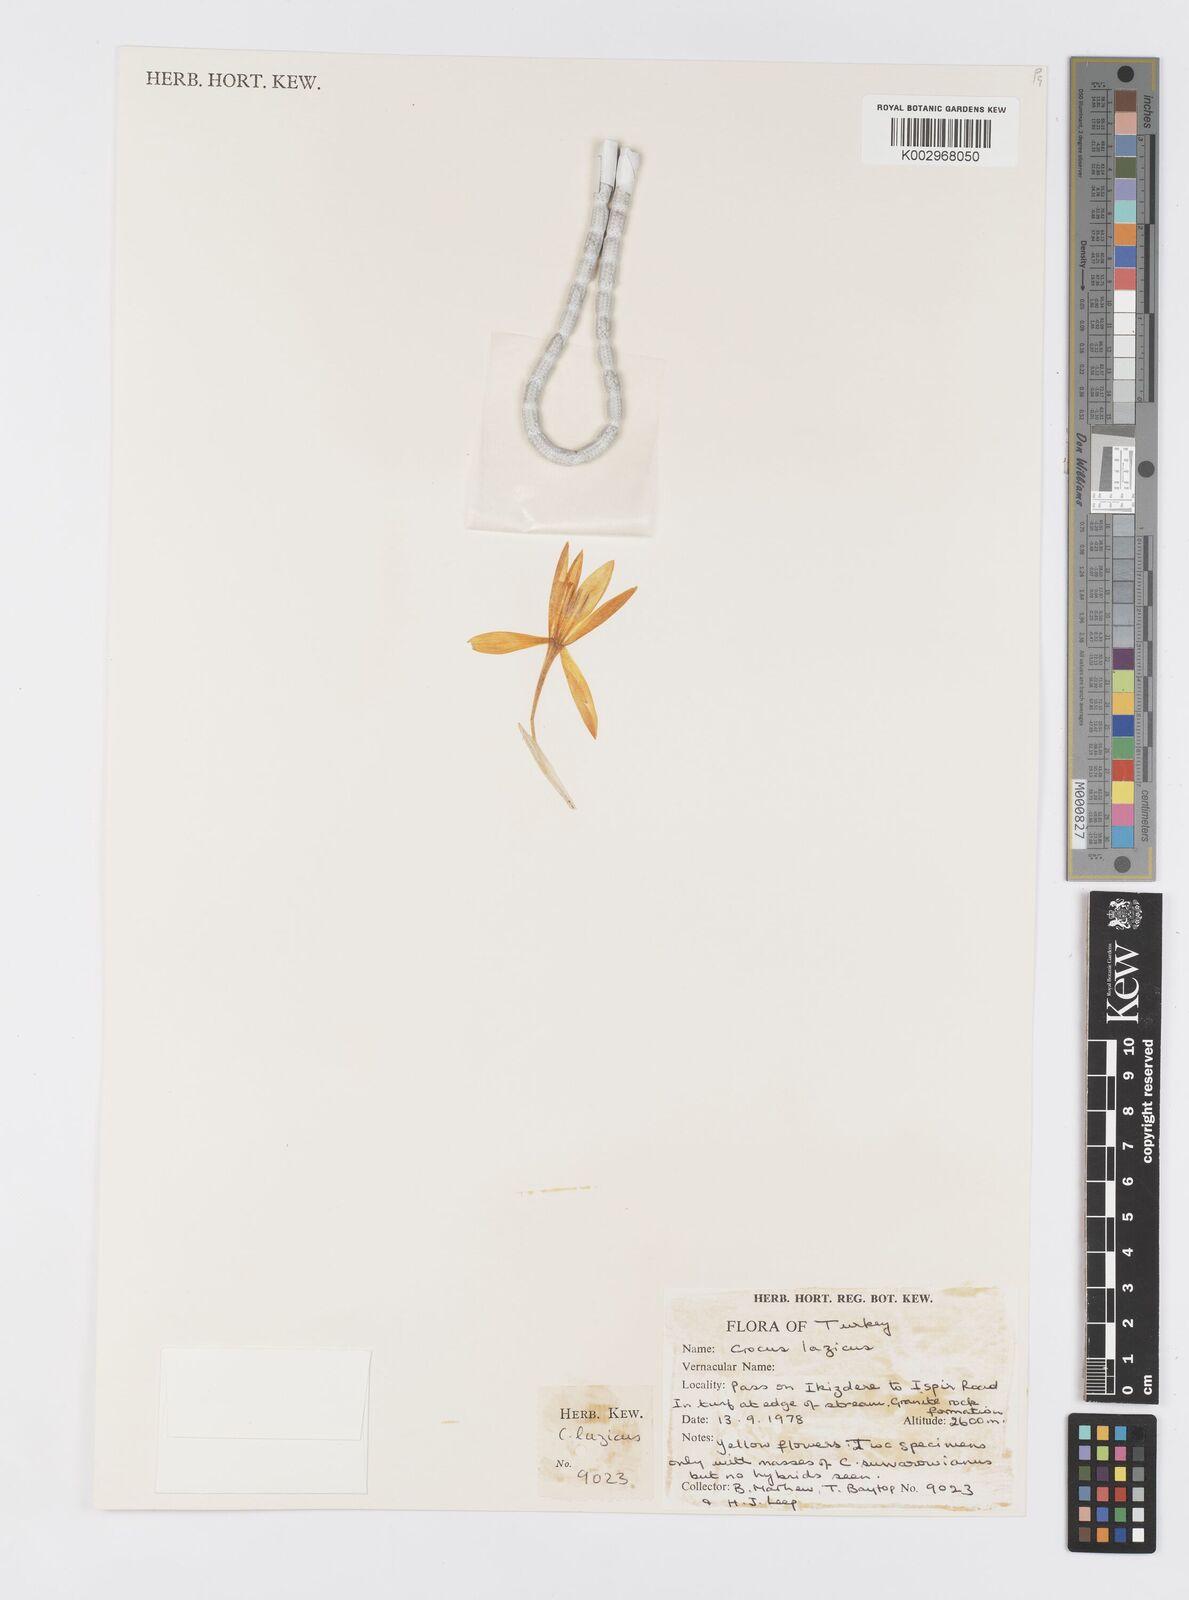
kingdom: Plantae
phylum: Tracheophyta
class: Liliopsida
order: Asparagales
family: Iridaceae
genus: Crocus
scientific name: Crocus lazicus
